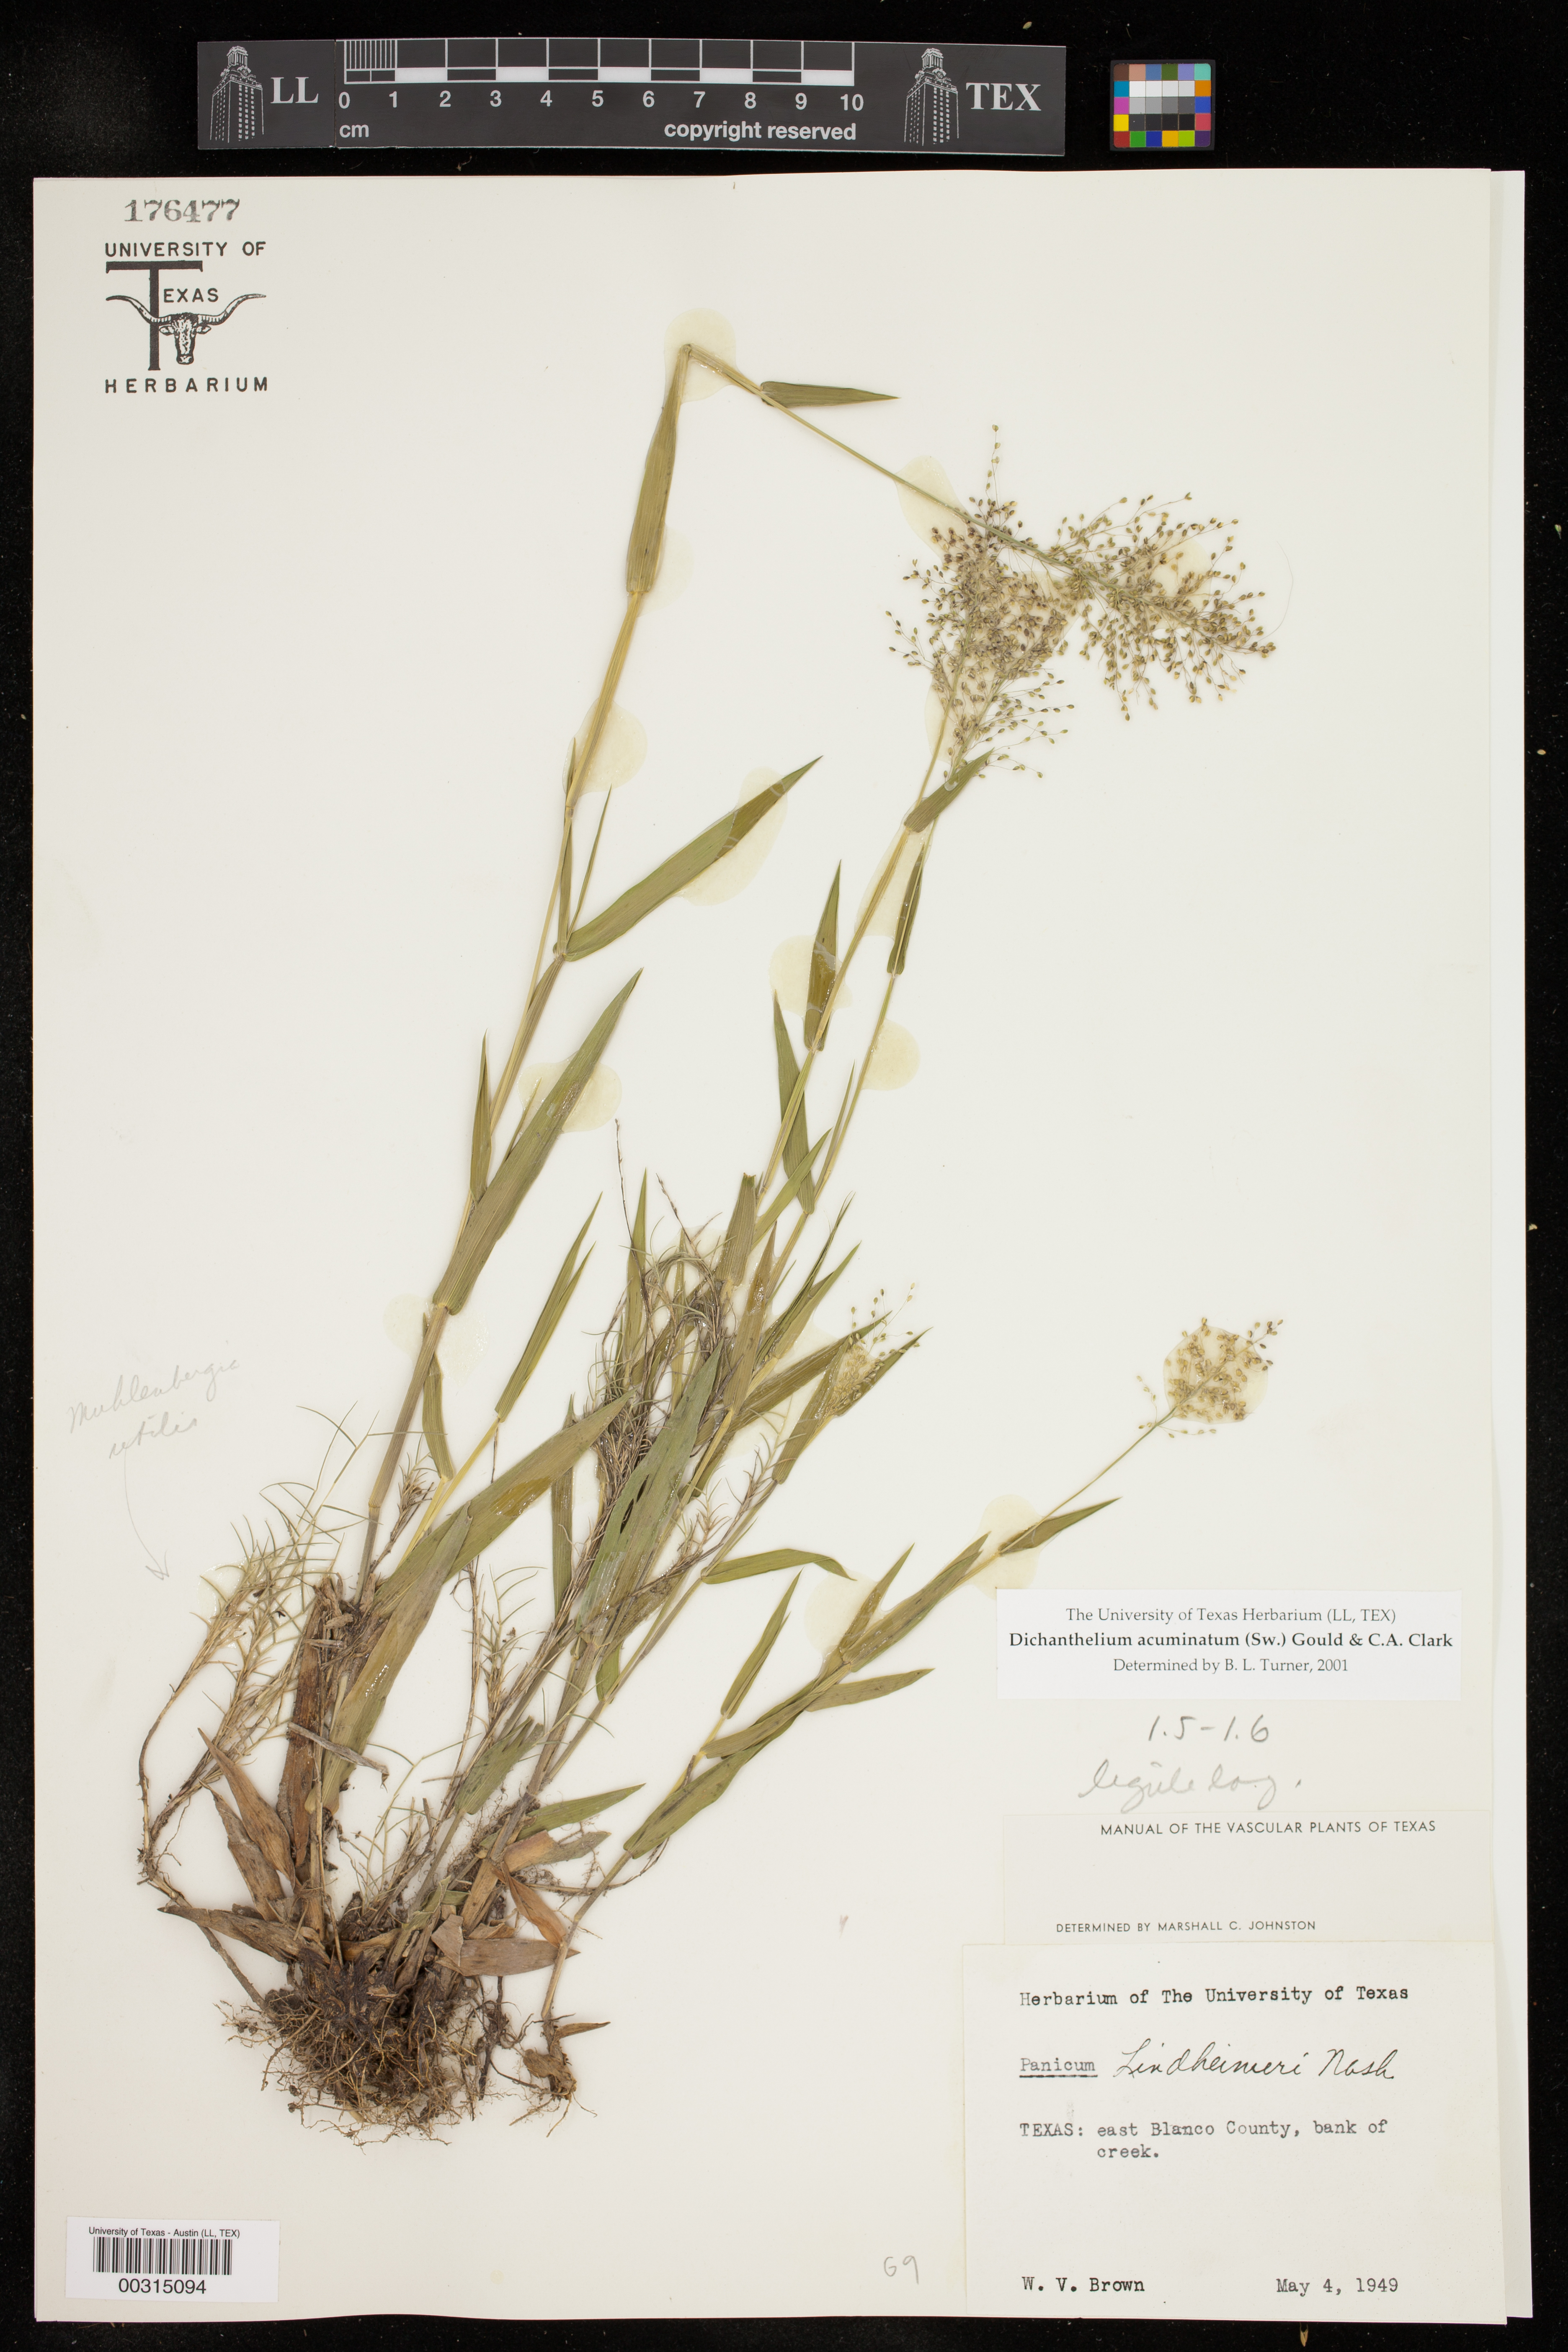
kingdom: Plantae
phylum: Tracheophyta
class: Liliopsida
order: Poales
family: Poaceae
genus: Dichanthelium
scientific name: Dichanthelium acuminatum
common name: Hairy panic grass
